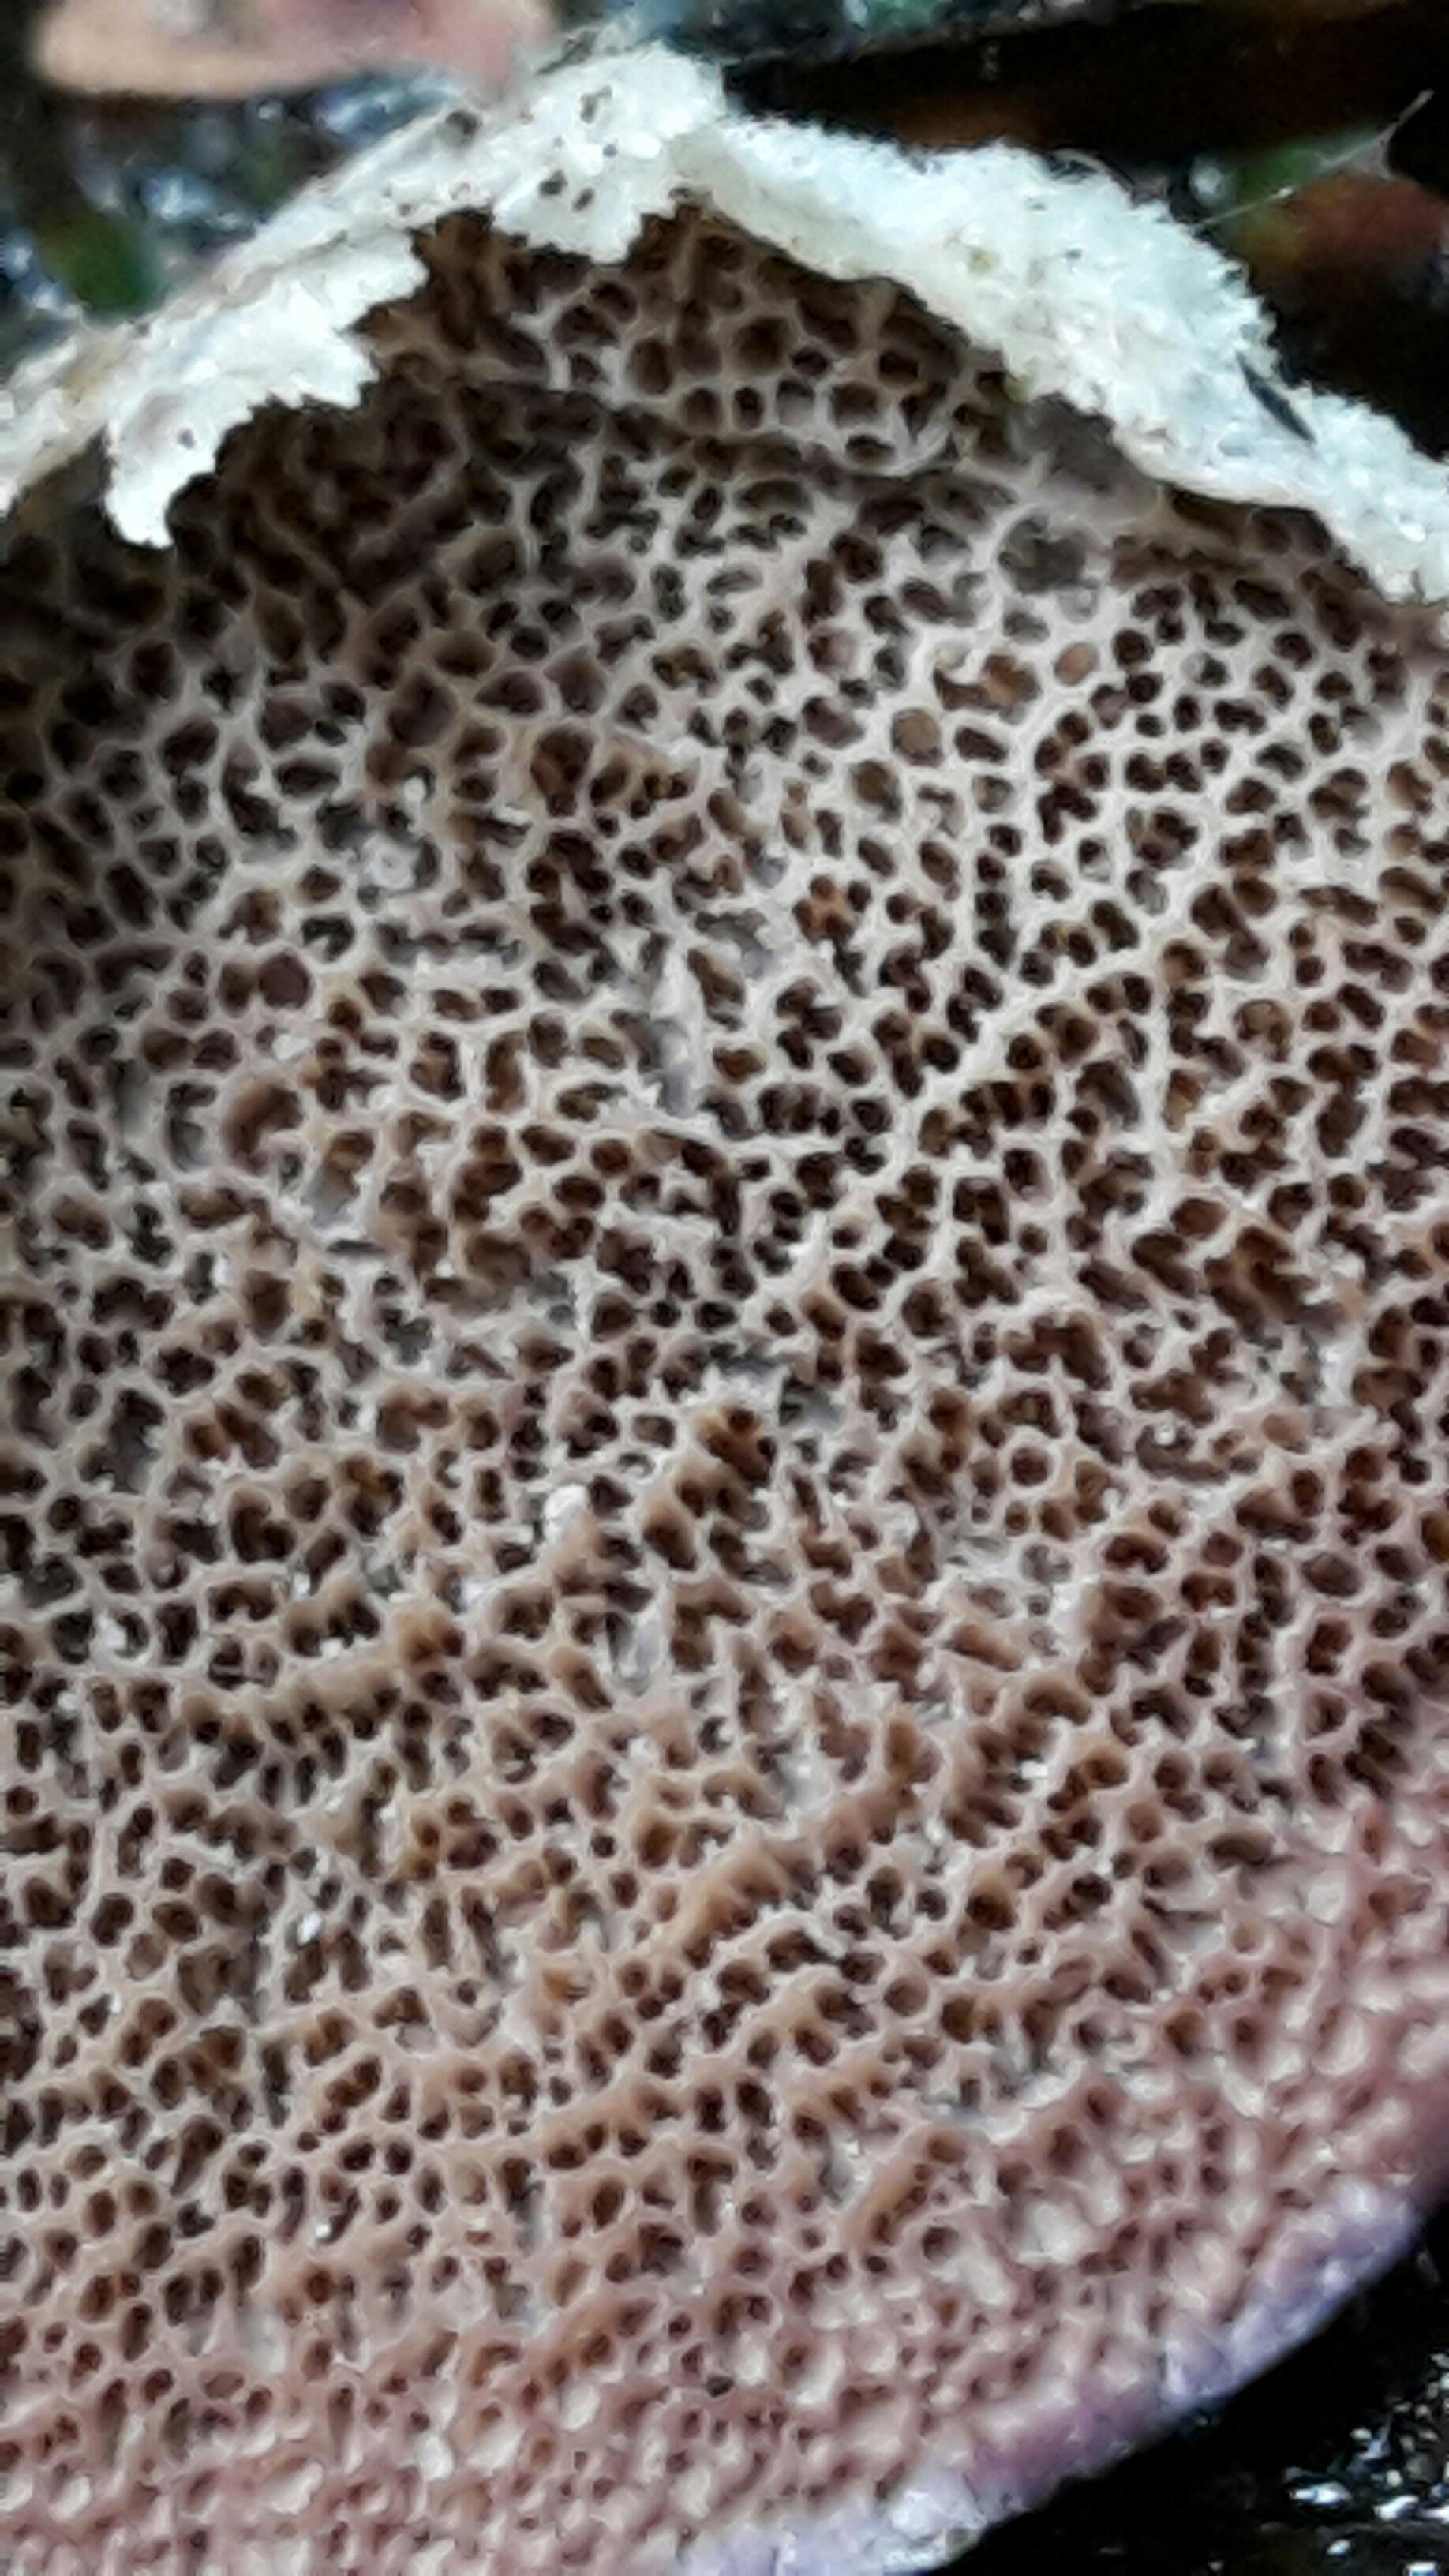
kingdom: Fungi
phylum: Basidiomycota
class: Agaricomycetes
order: Hymenochaetales
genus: Trichaptum
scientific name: Trichaptum abietinum
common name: almindelig violporesvamp
